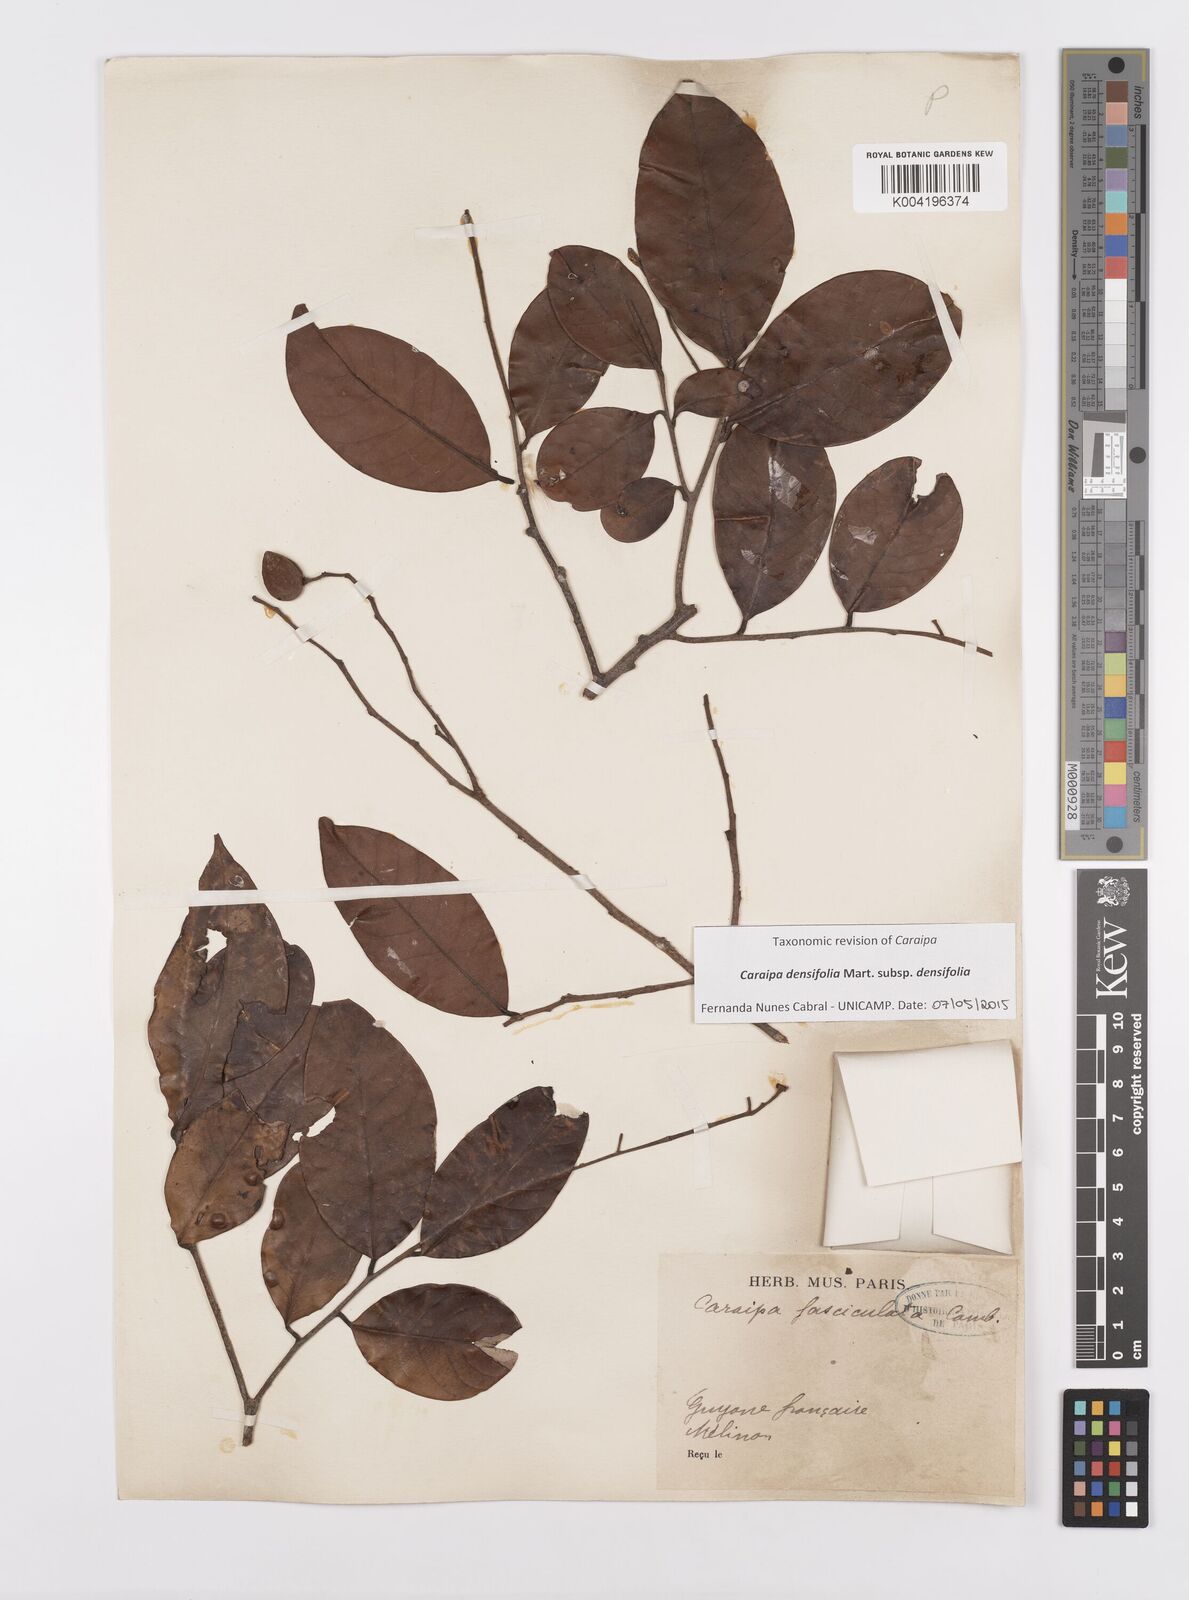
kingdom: Plantae
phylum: Tracheophyta
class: Magnoliopsida
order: Malpighiales
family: Calophyllaceae
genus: Caraipa
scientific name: Caraipa densifolia
